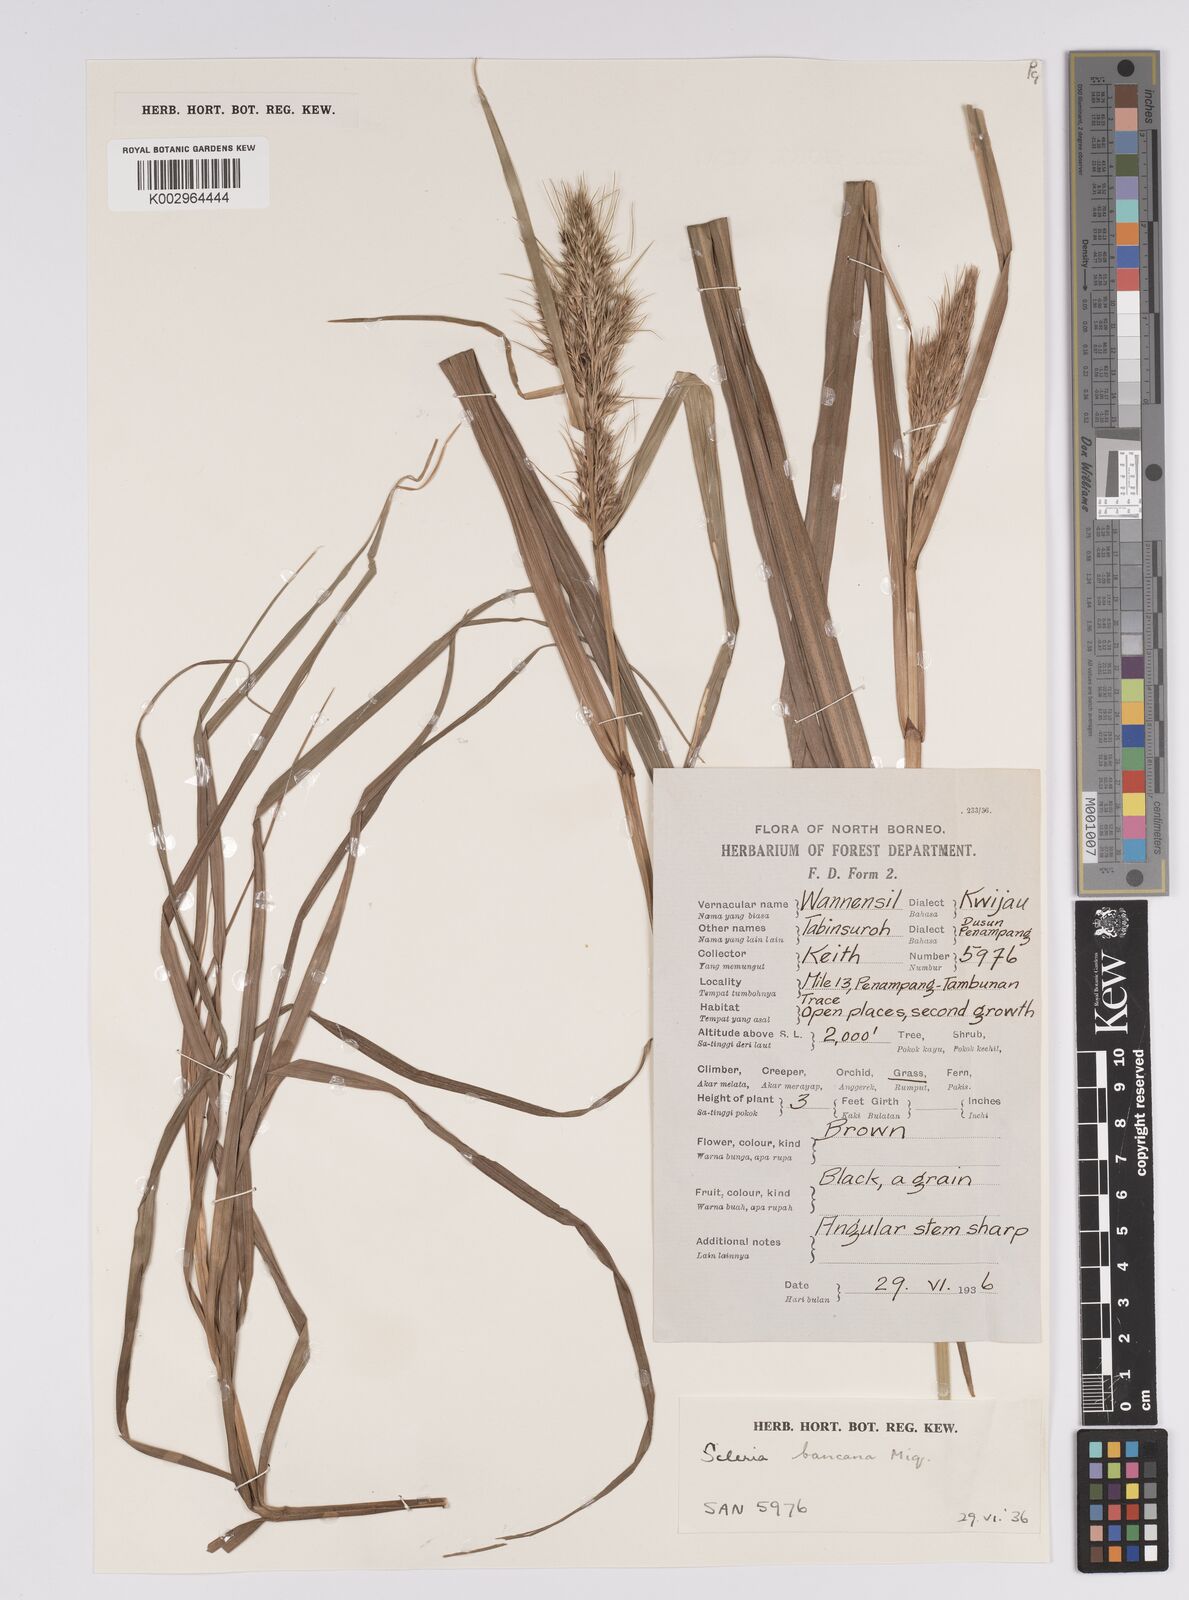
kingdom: Plantae
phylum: Tracheophyta
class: Liliopsida
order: Poales
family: Cyperaceae
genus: Scleria
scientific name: Scleria ciliaris
